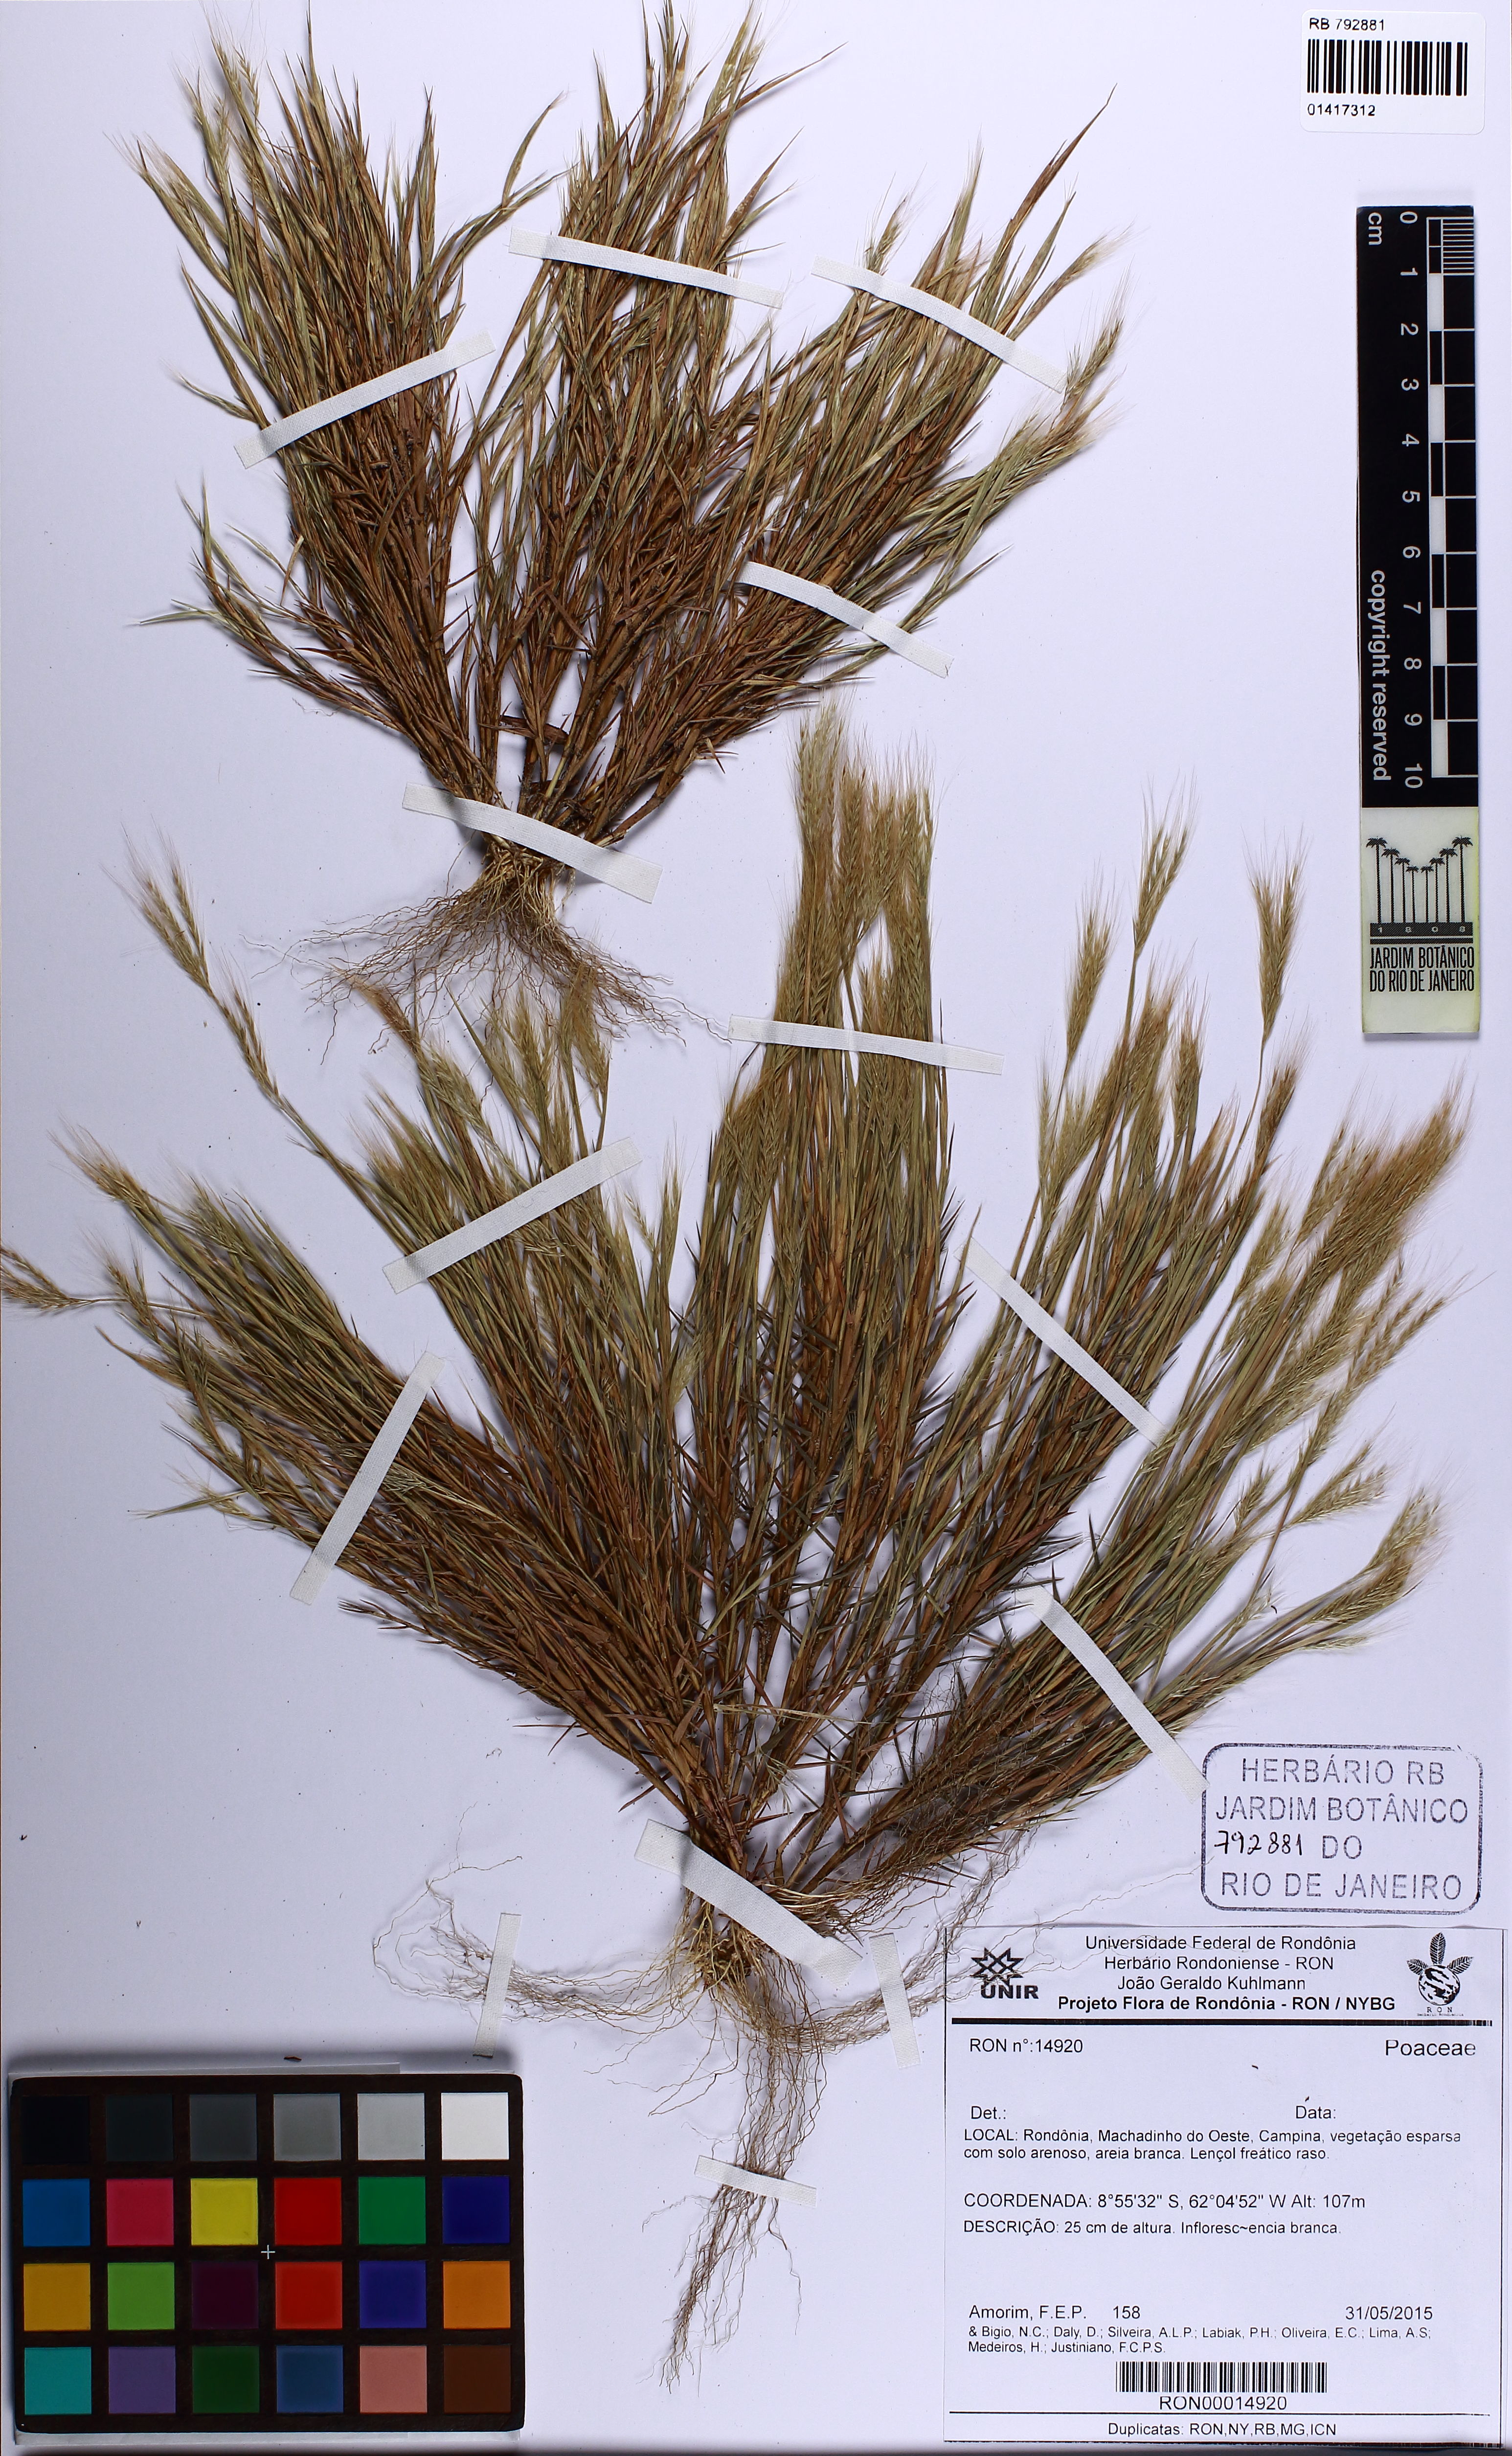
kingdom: Plantae
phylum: Tracheophyta
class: Liliopsida
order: Poales
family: Poaceae
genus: Gymnopogon
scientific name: Gymnopogon
